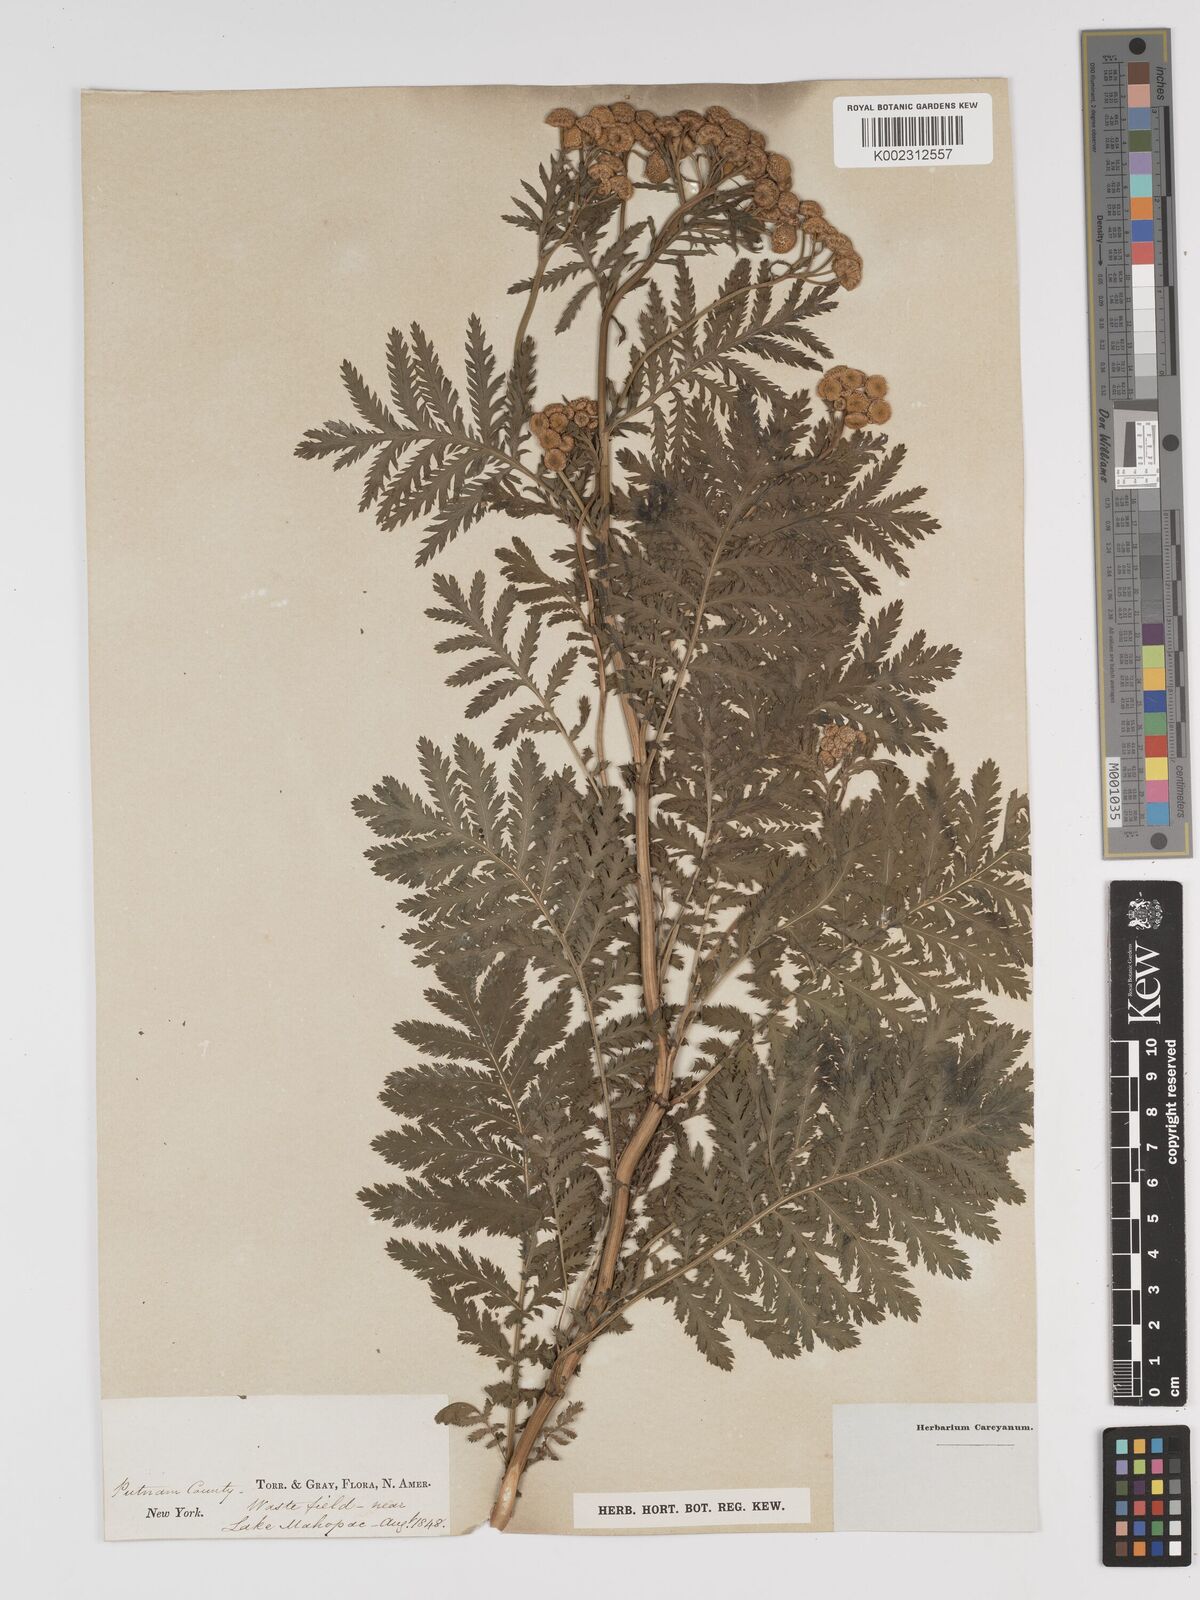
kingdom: Plantae
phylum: Tracheophyta
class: Magnoliopsida
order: Asterales
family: Asteraceae
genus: Tanacetum
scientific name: Tanacetum
